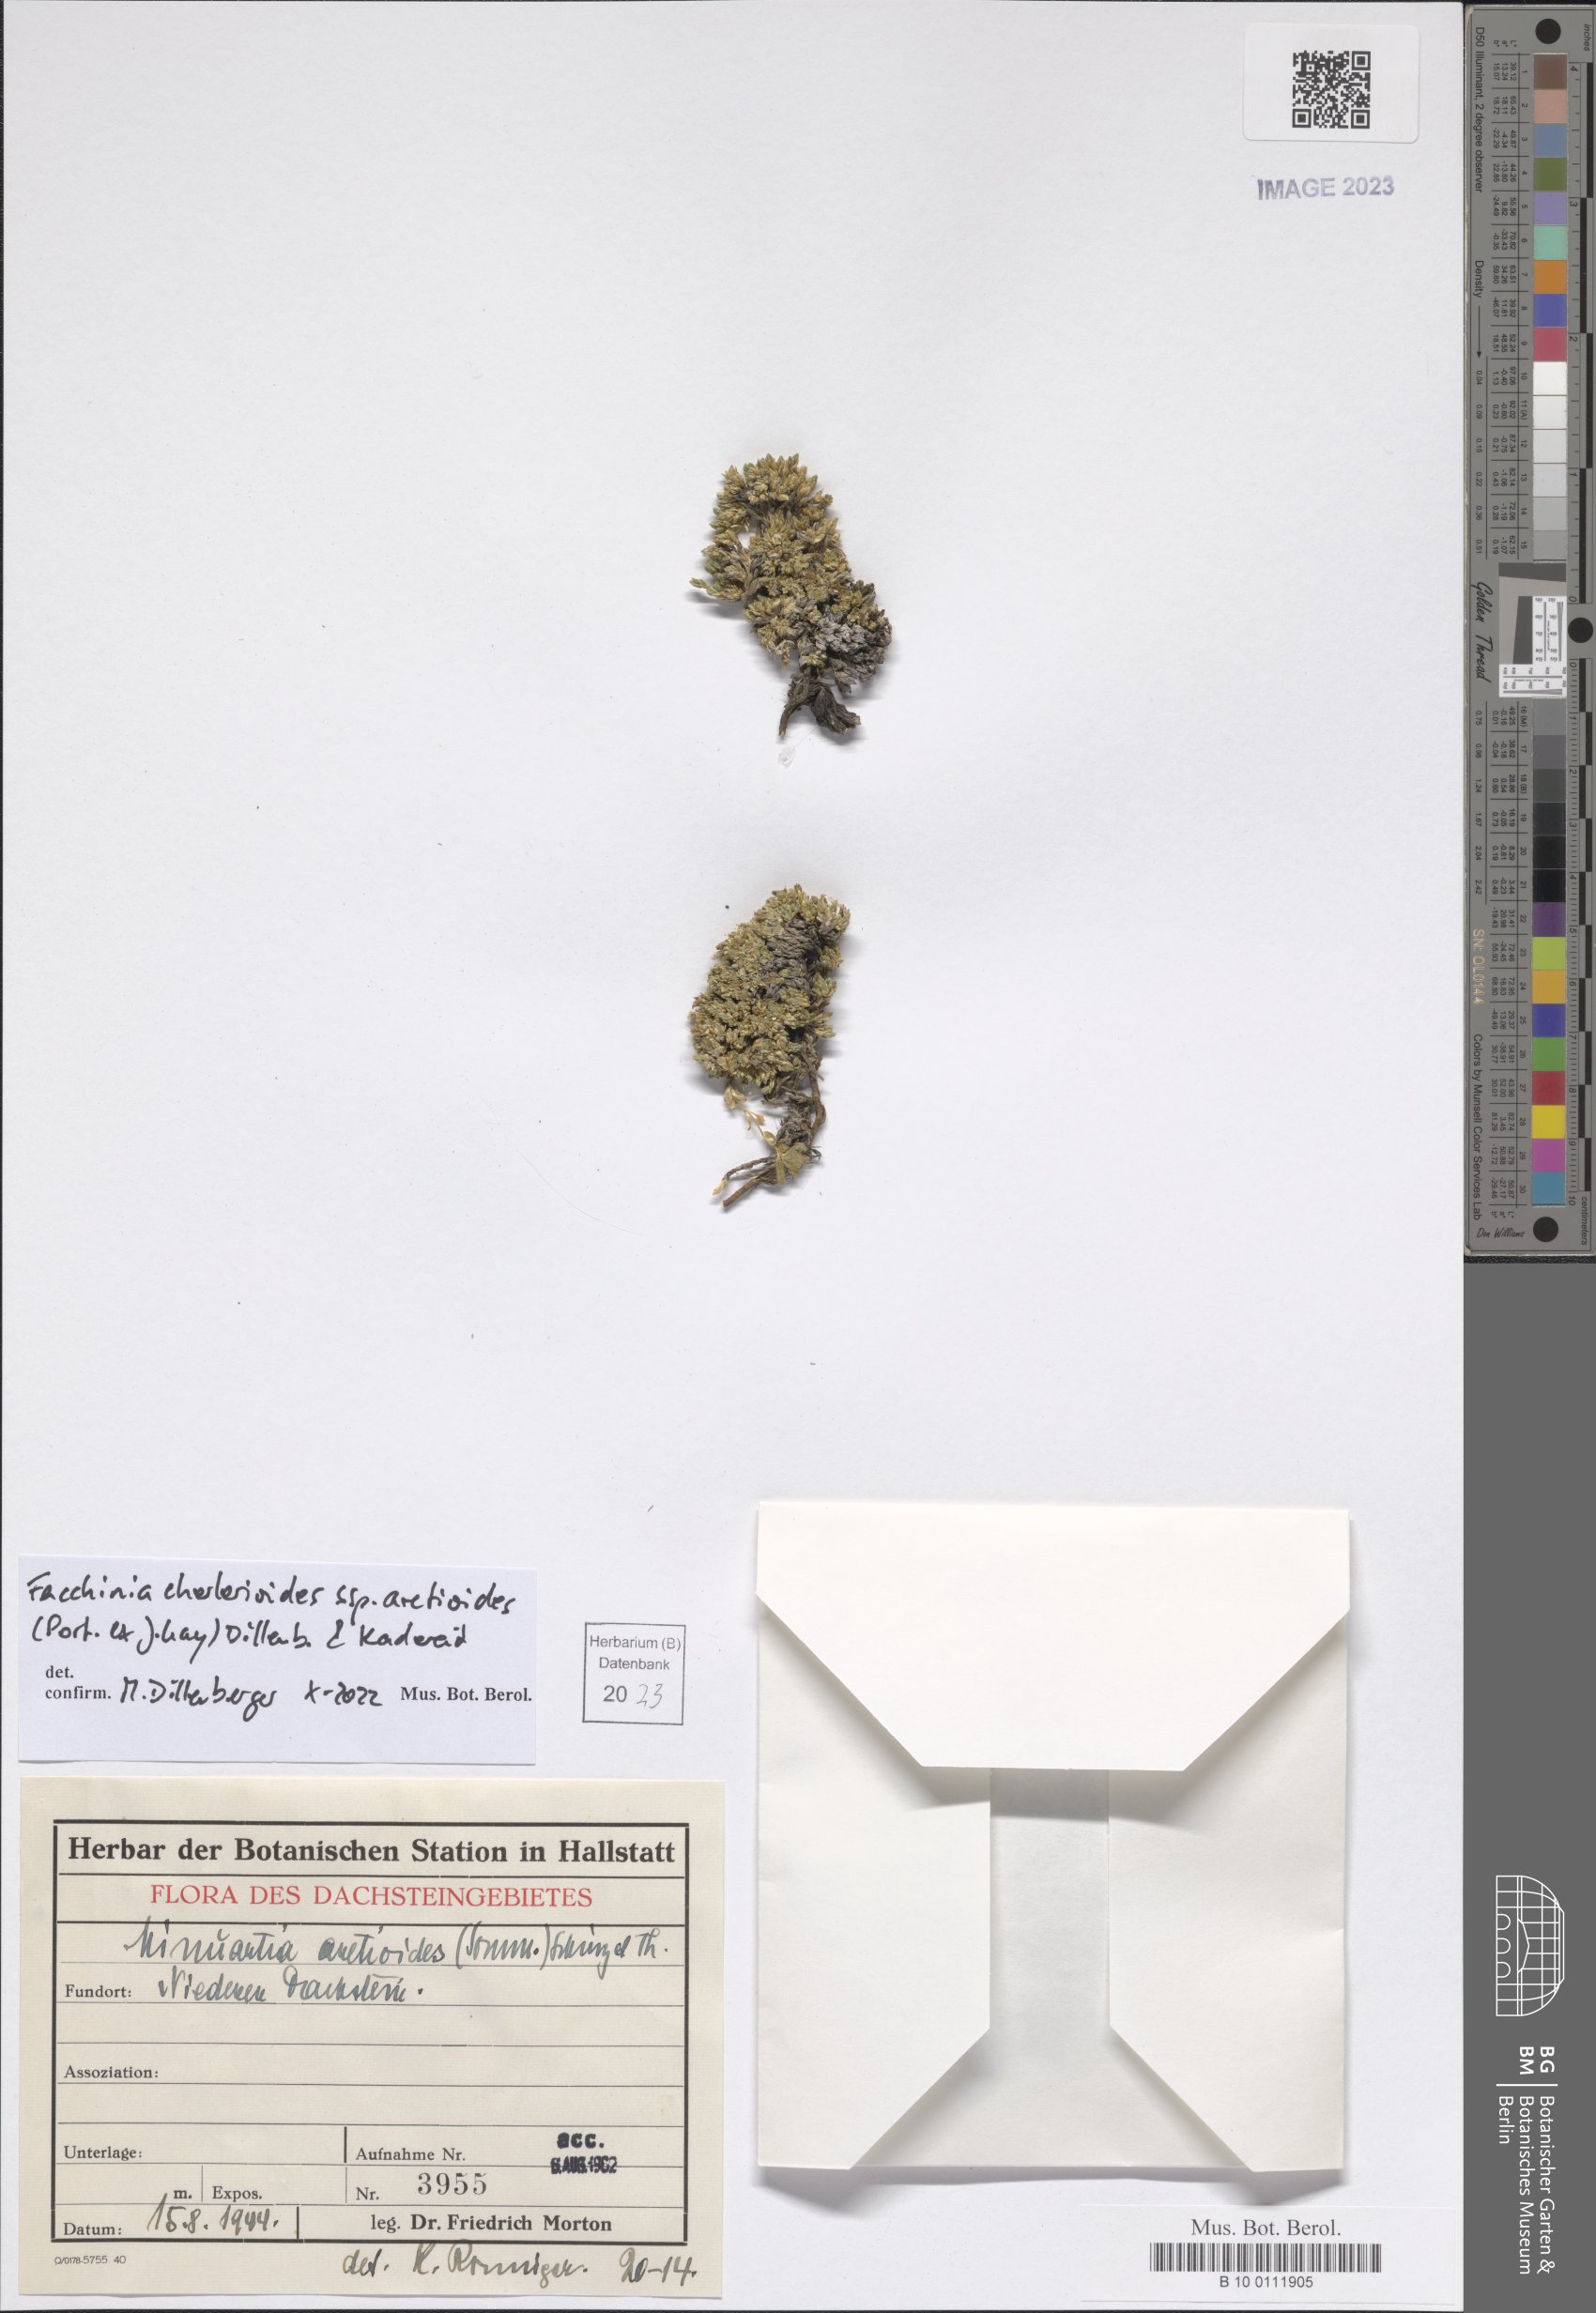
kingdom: Plantae
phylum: Tracheophyta
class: Magnoliopsida
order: Caryophyllales
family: Caryophyllaceae
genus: Facchinia
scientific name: Facchinia cherlerioides
